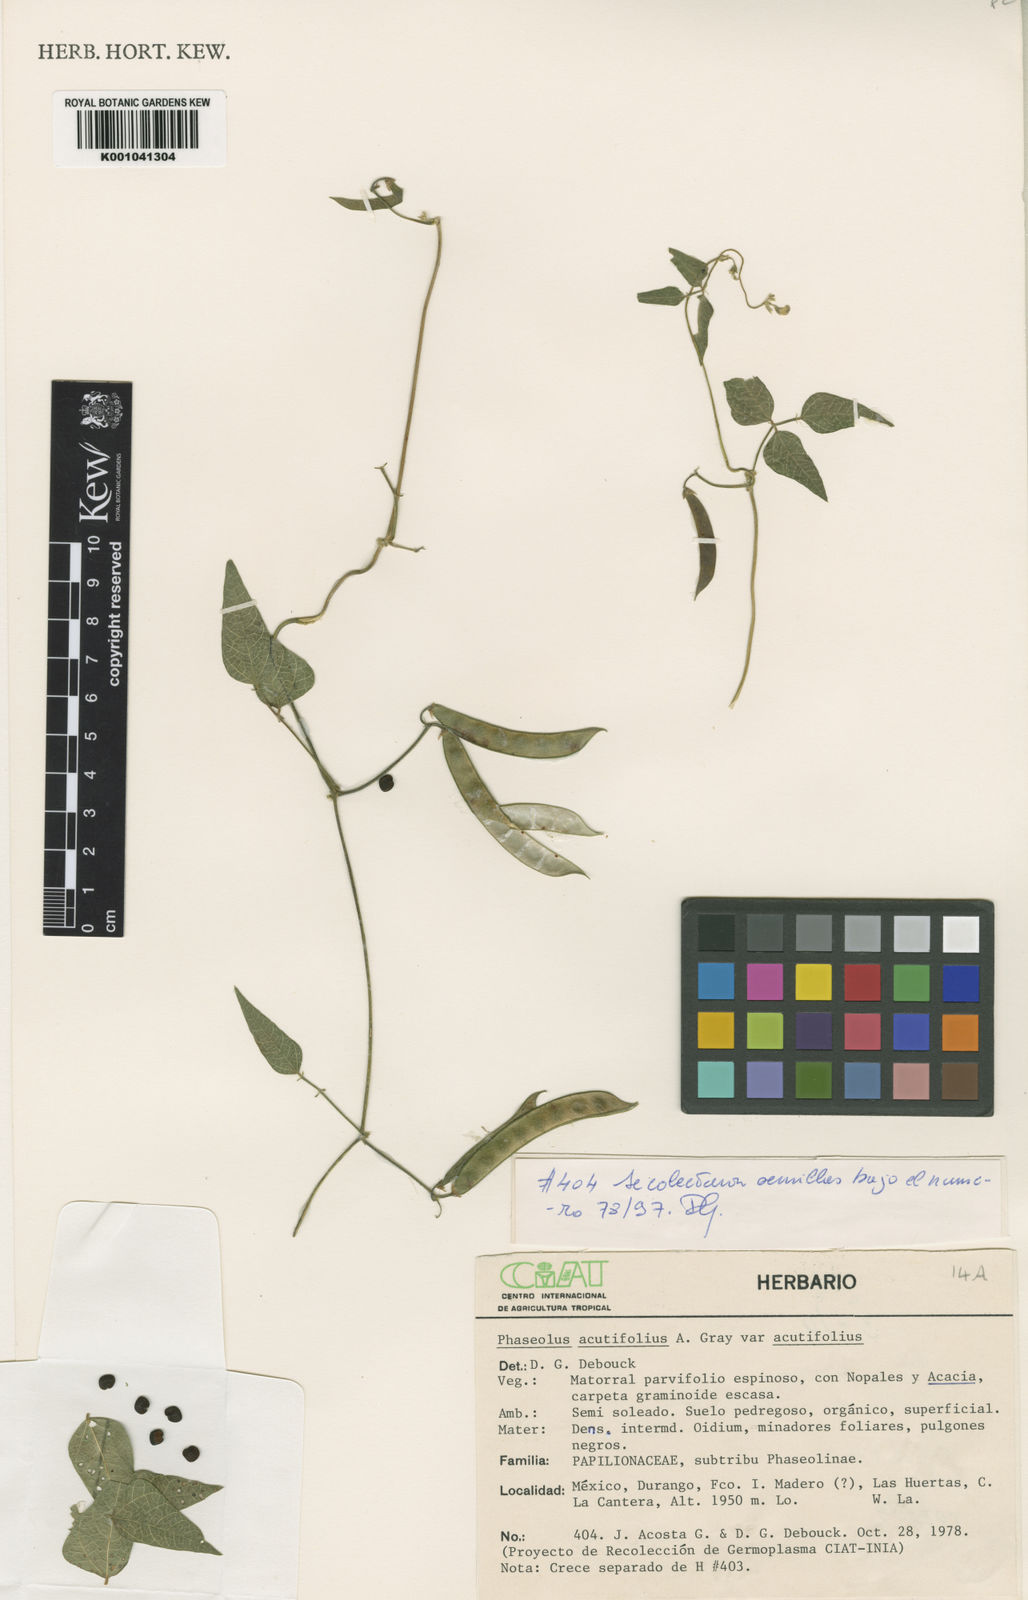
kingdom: Plantae
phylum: Tracheophyta
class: Magnoliopsida
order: Fabales
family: Fabaceae
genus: Phaseolus
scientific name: Phaseolus acutifolius
